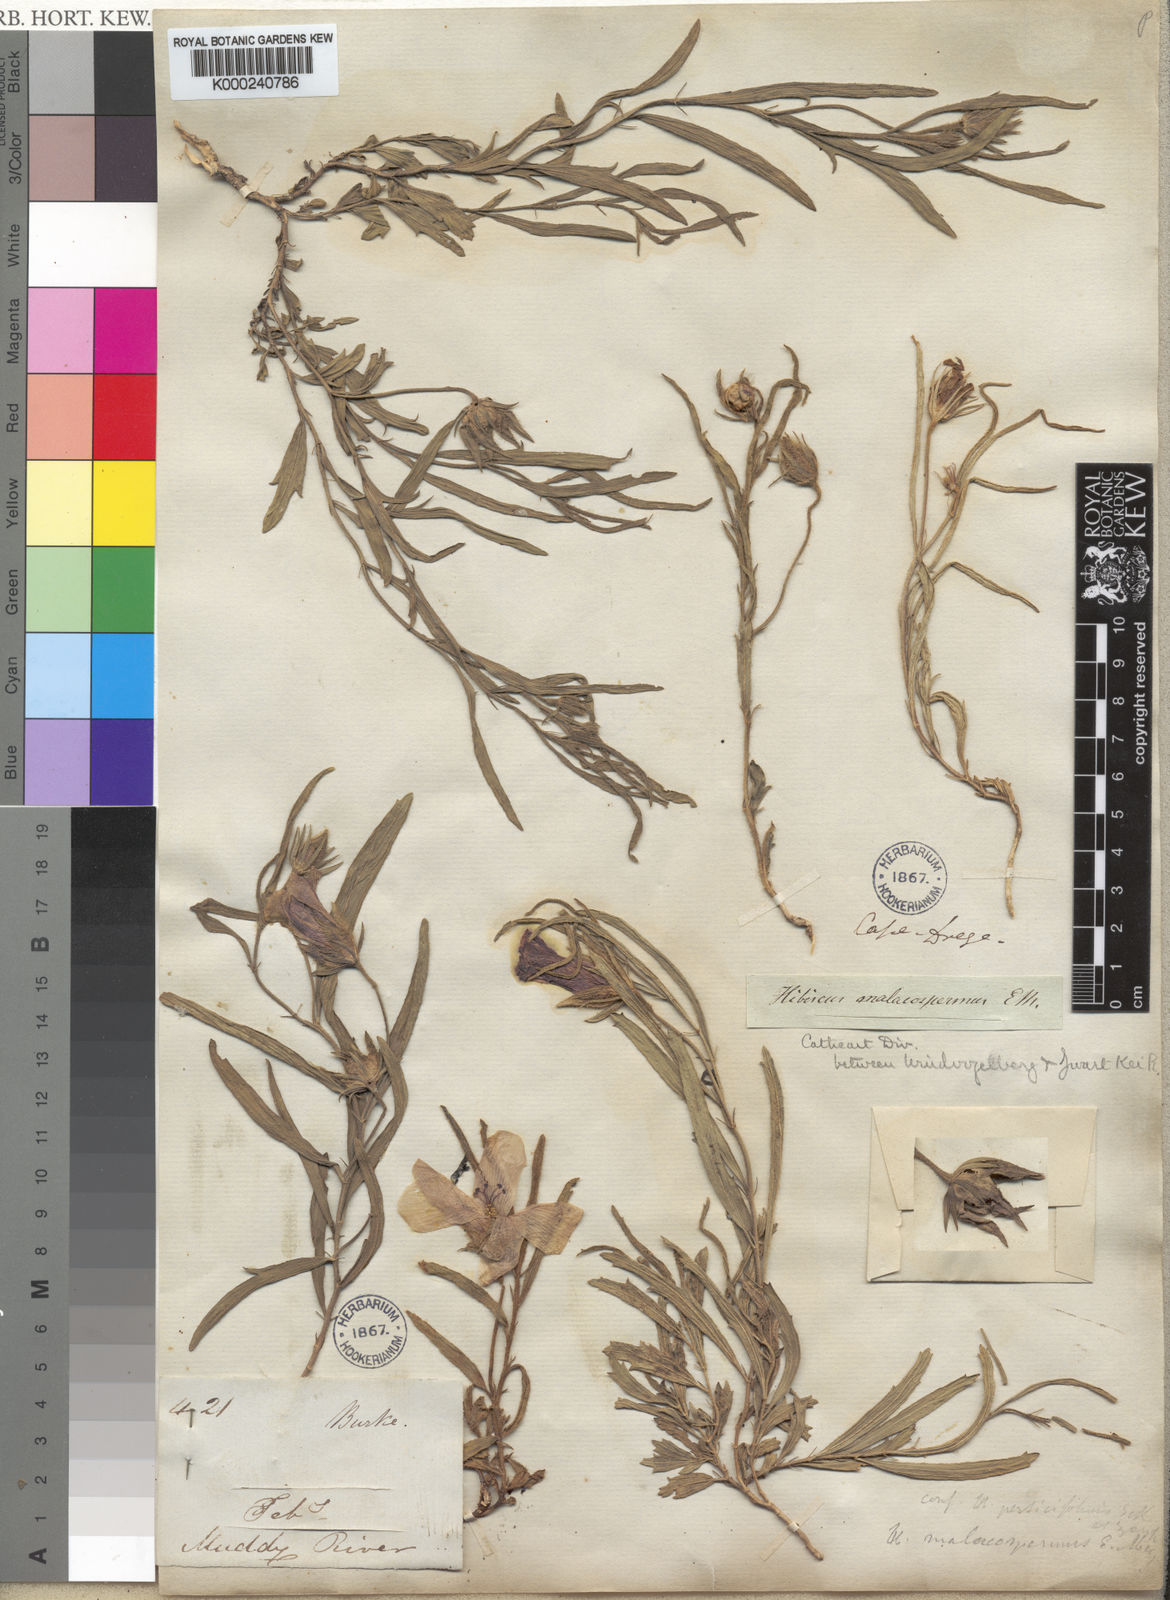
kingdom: Plantae
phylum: Tracheophyta
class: Magnoliopsida
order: Malvales
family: Malvaceae
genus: Hibiscus
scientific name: Hibiscus
